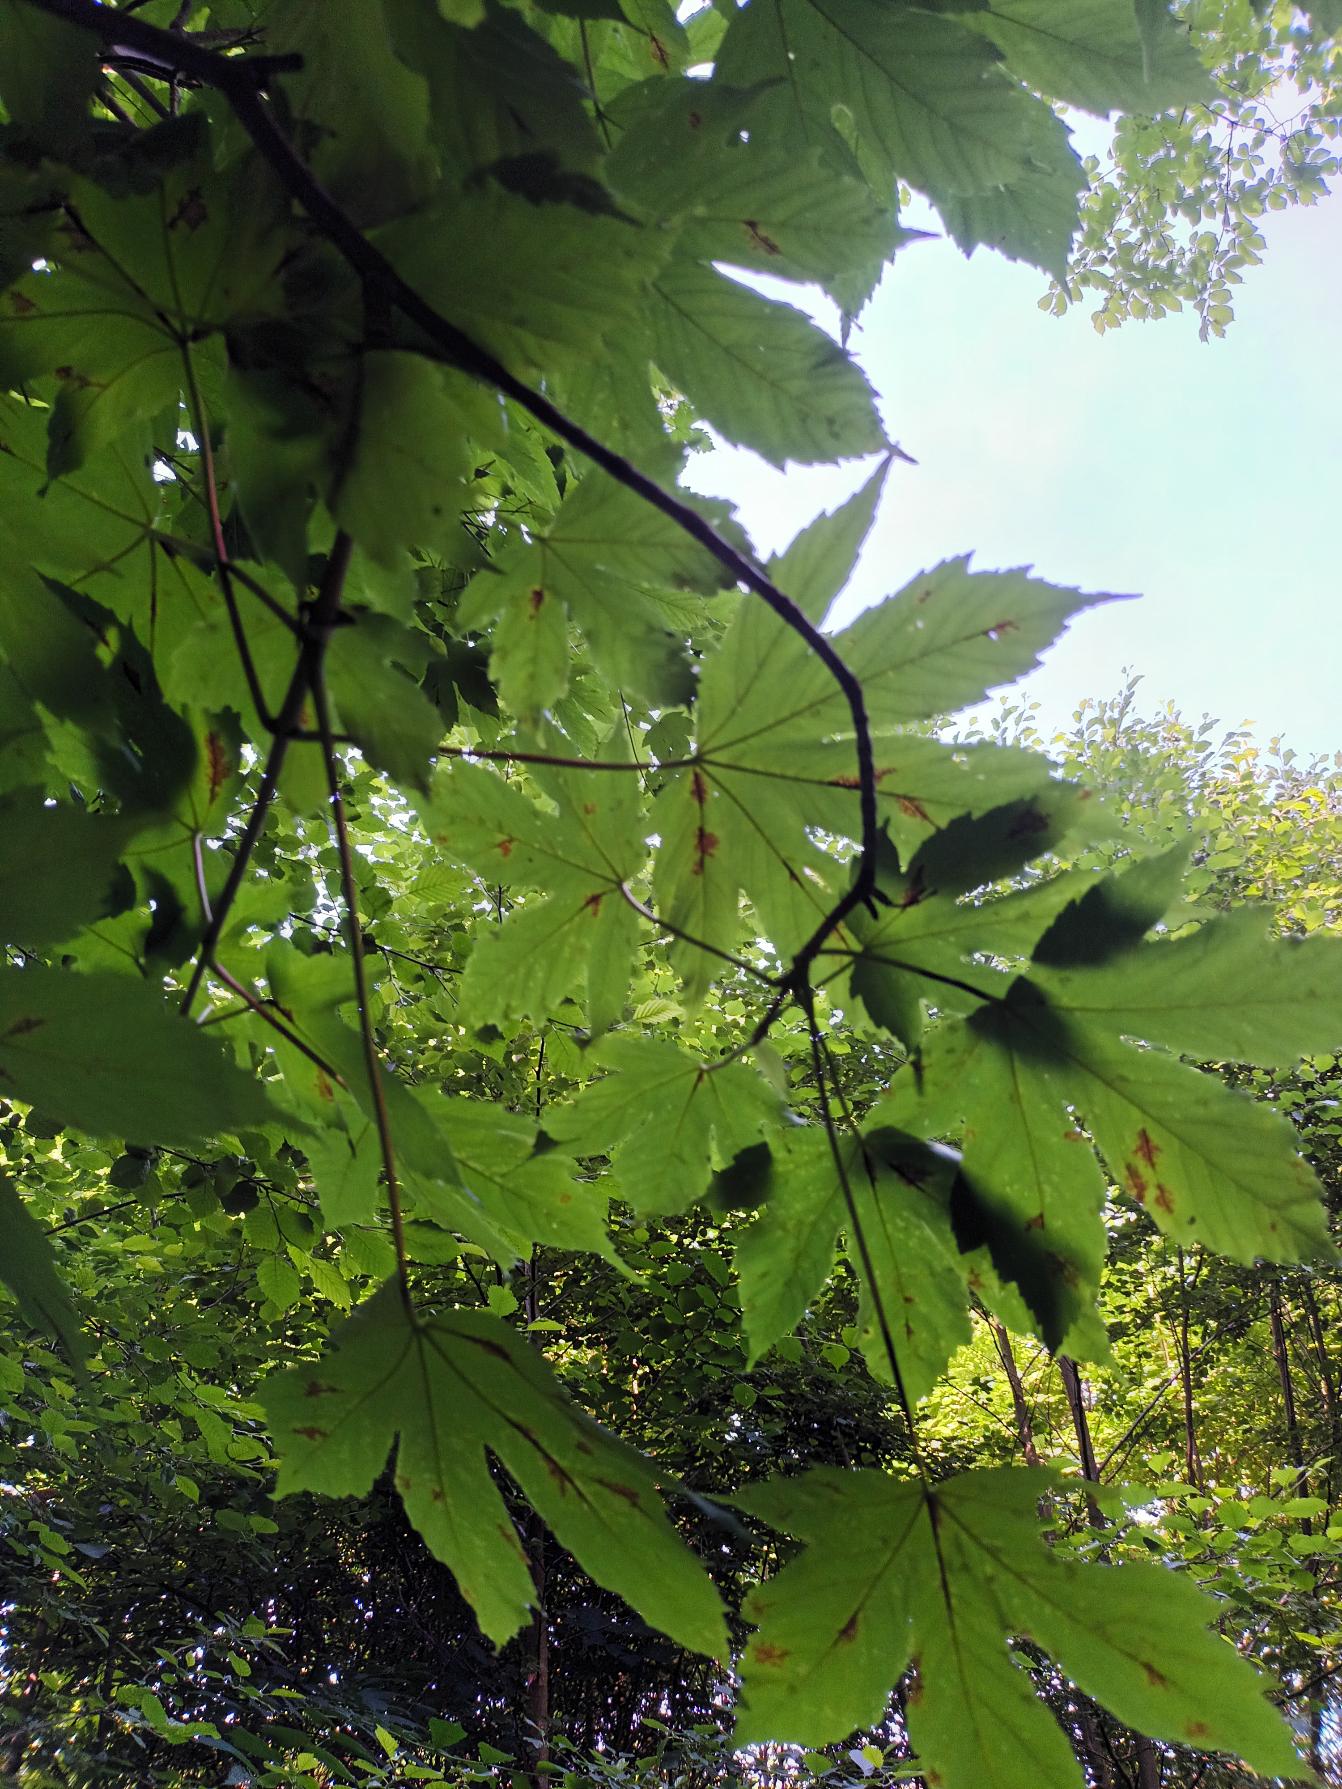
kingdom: Plantae
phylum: Tracheophyta
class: Magnoliopsida
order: Sapindales
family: Sapindaceae
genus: Acer
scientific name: Acer heldreichii
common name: Græsk løn
